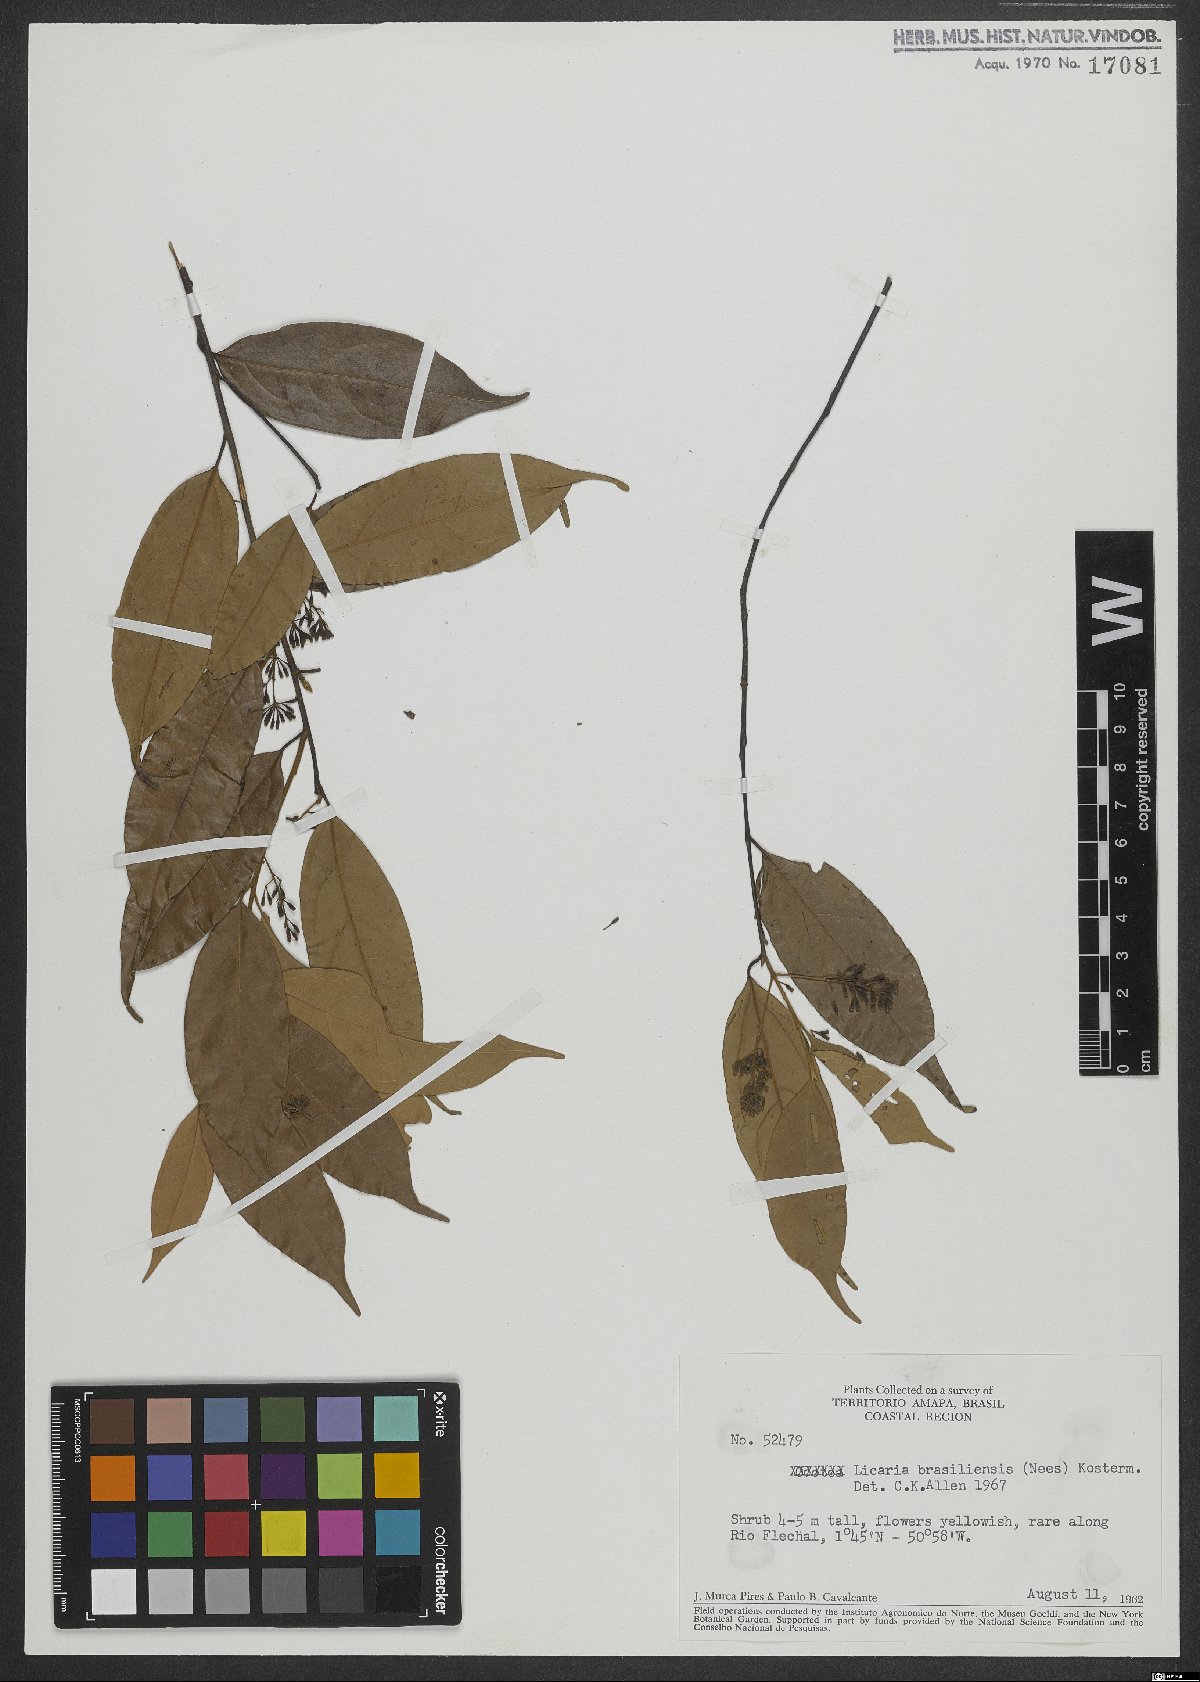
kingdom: Plantae
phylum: Tracheophyta
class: Magnoliopsida
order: Laurales
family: Lauraceae
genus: Licaria
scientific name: Licaria brasiliensis
